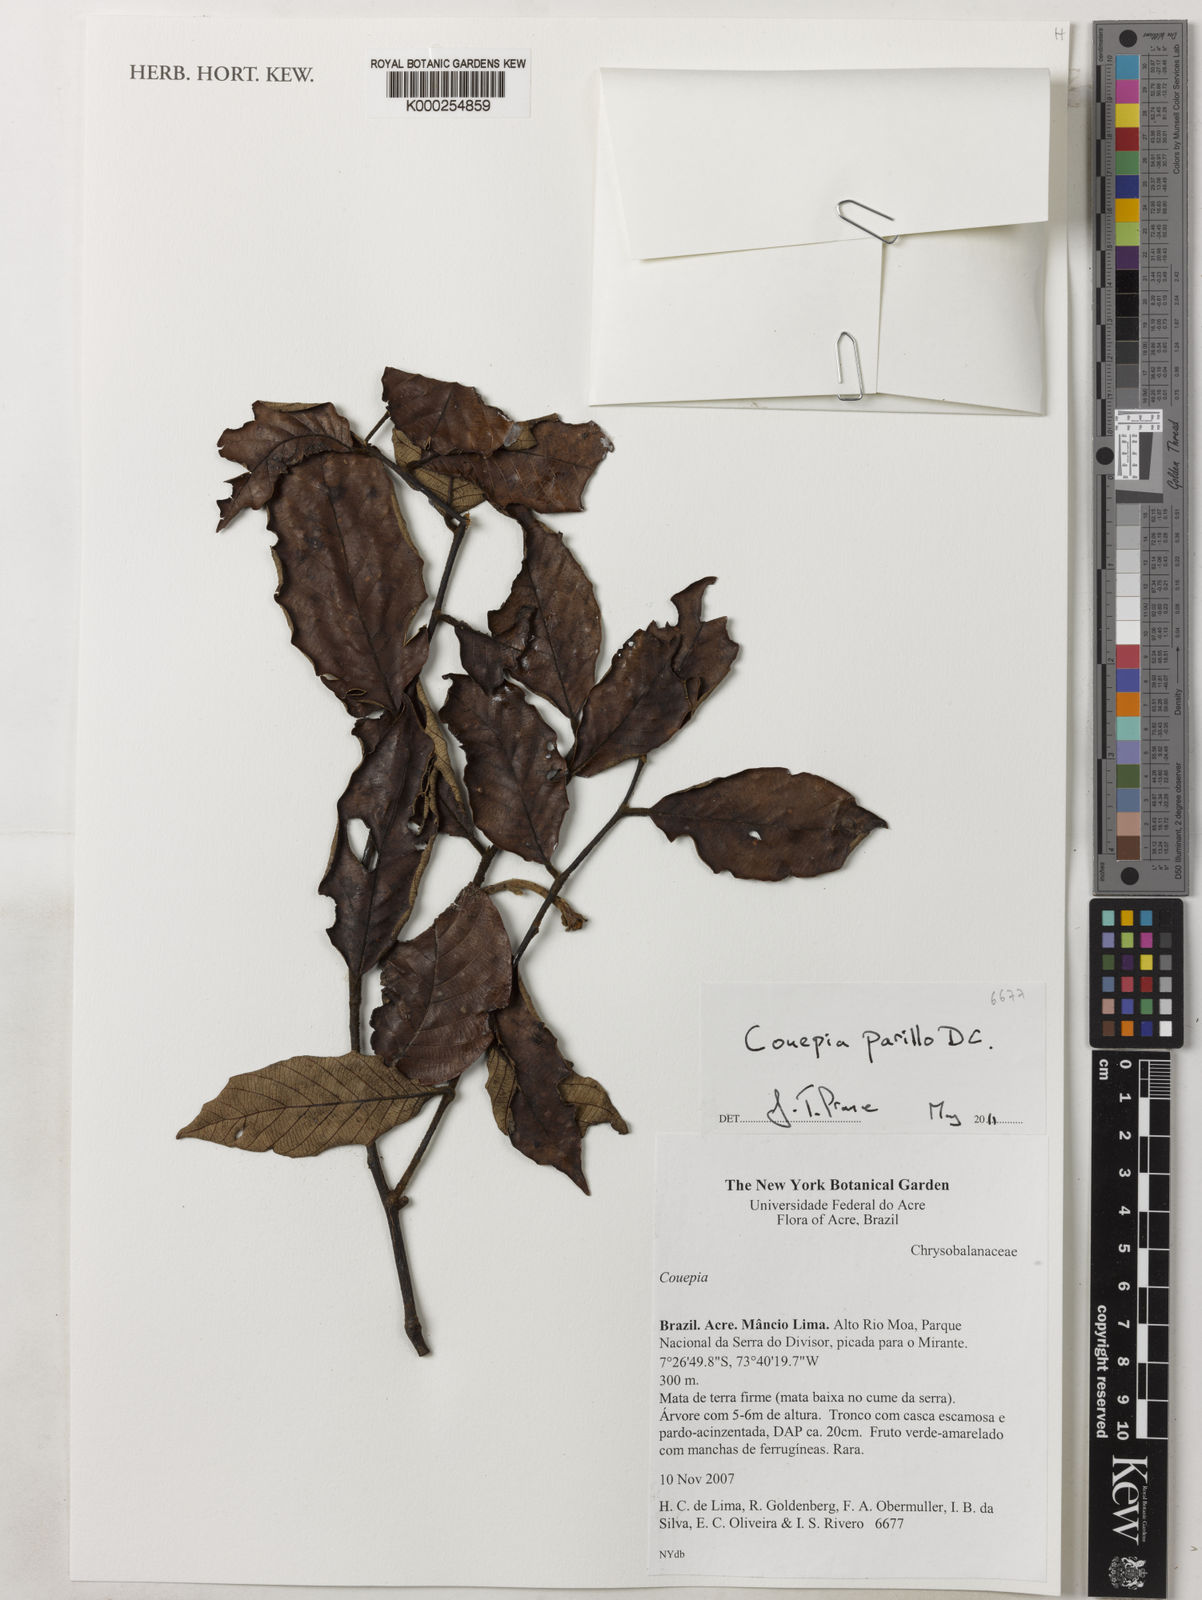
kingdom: Plantae
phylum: Tracheophyta
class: Magnoliopsida
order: Malpighiales
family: Chrysobalanaceae
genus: Gaulettia
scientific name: Gaulettia parillo
